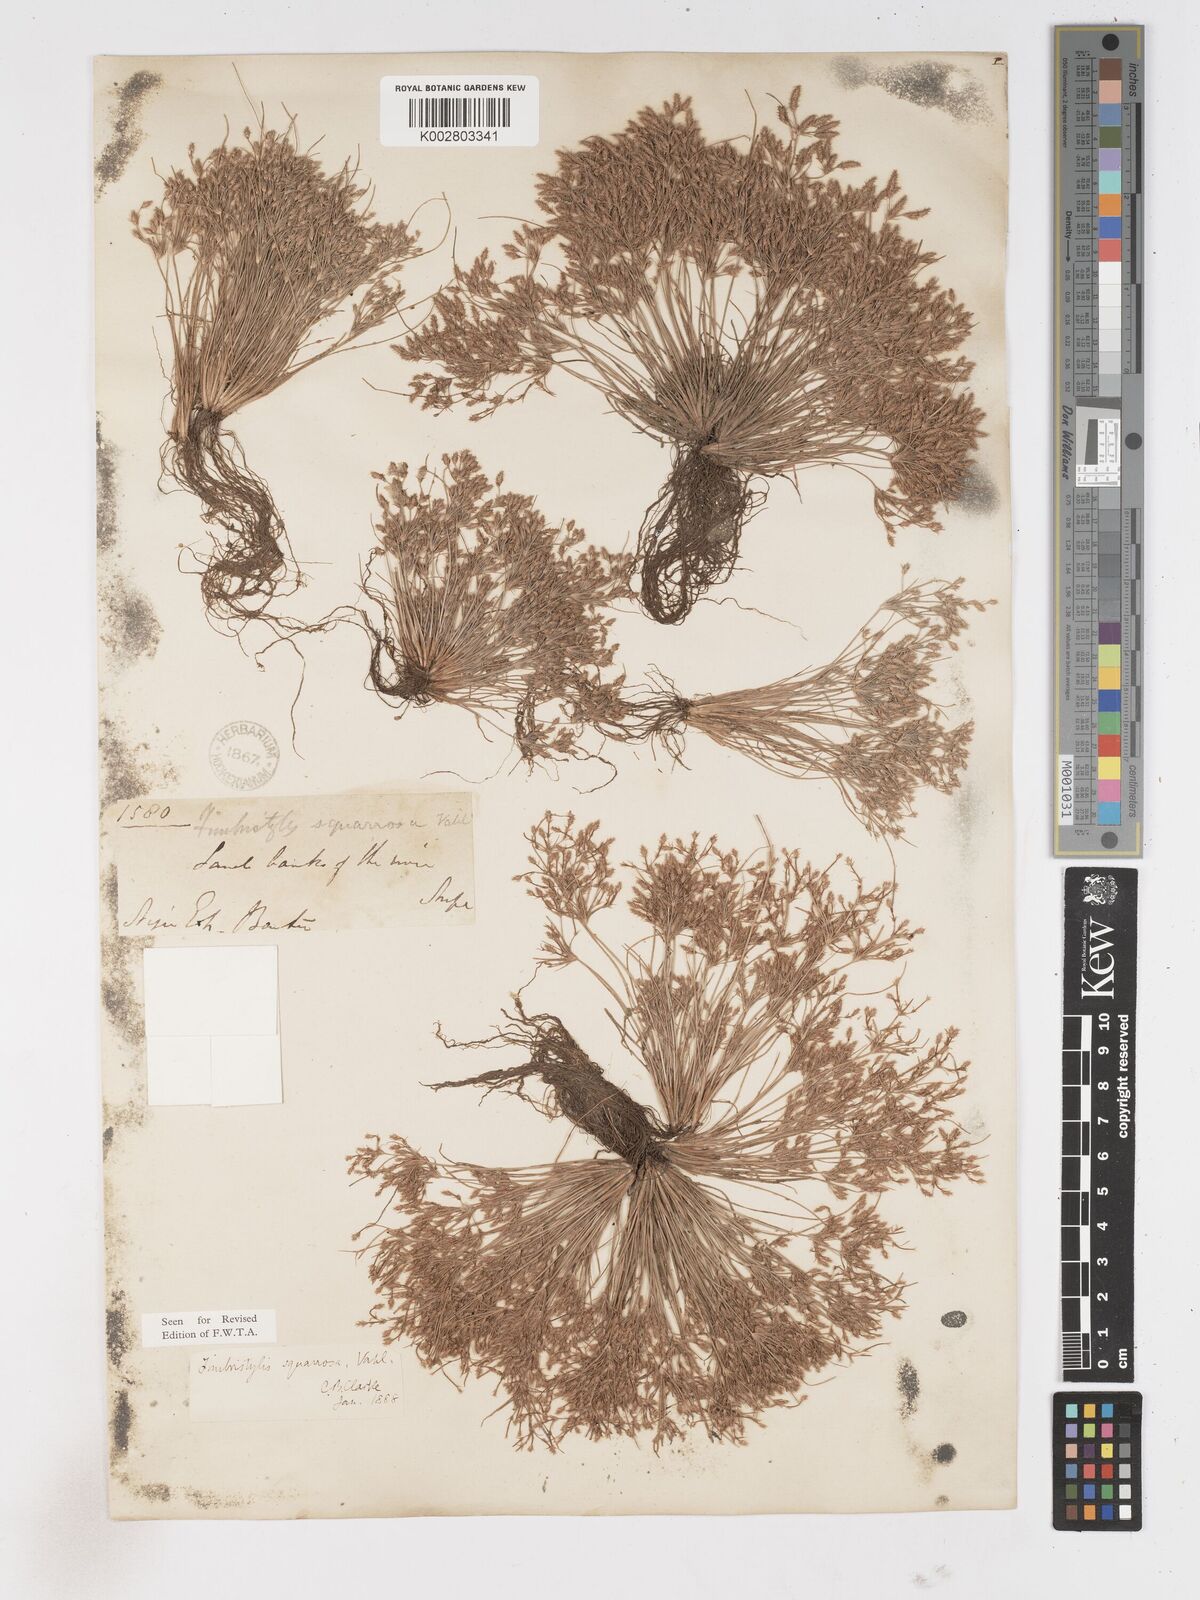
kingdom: Plantae
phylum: Tracheophyta
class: Liliopsida
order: Poales
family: Cyperaceae
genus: Fimbristylis
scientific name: Fimbristylis squarrosa
